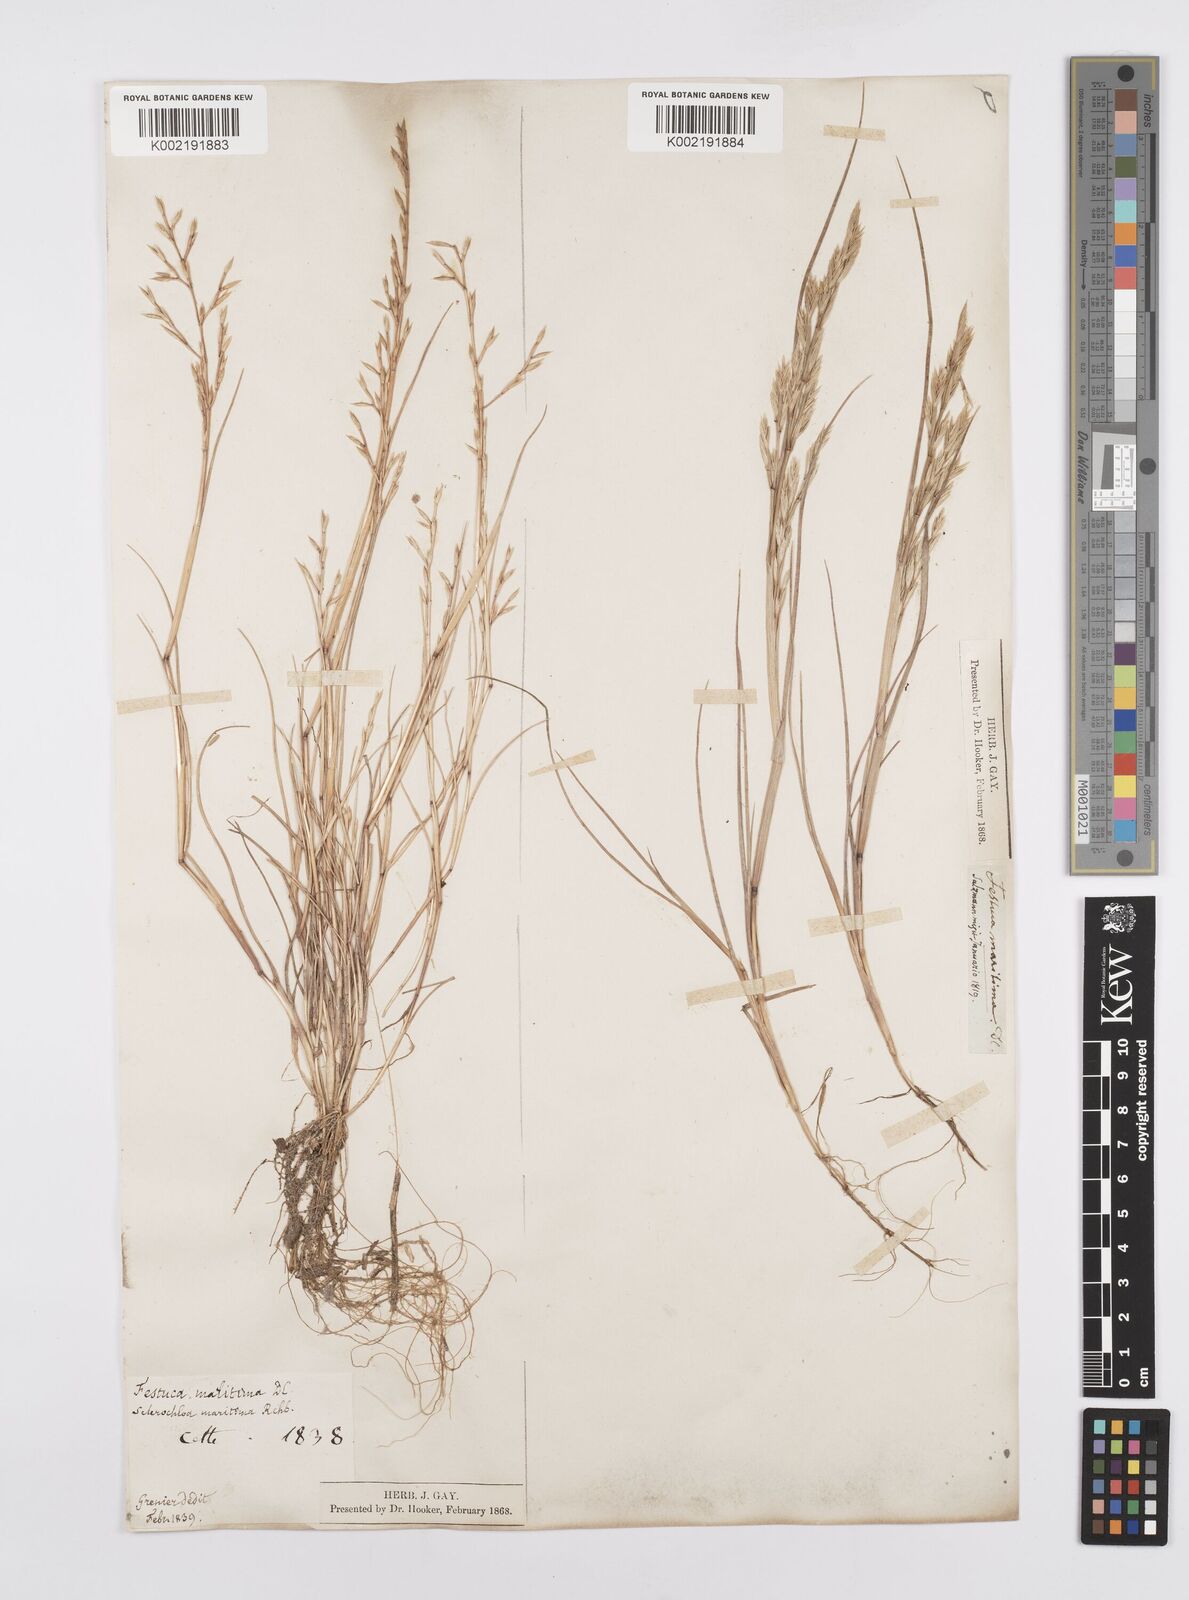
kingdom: Plantae
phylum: Tracheophyta
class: Liliopsida
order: Poales
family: Poaceae
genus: Cutandia
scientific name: Cutandia maritima
